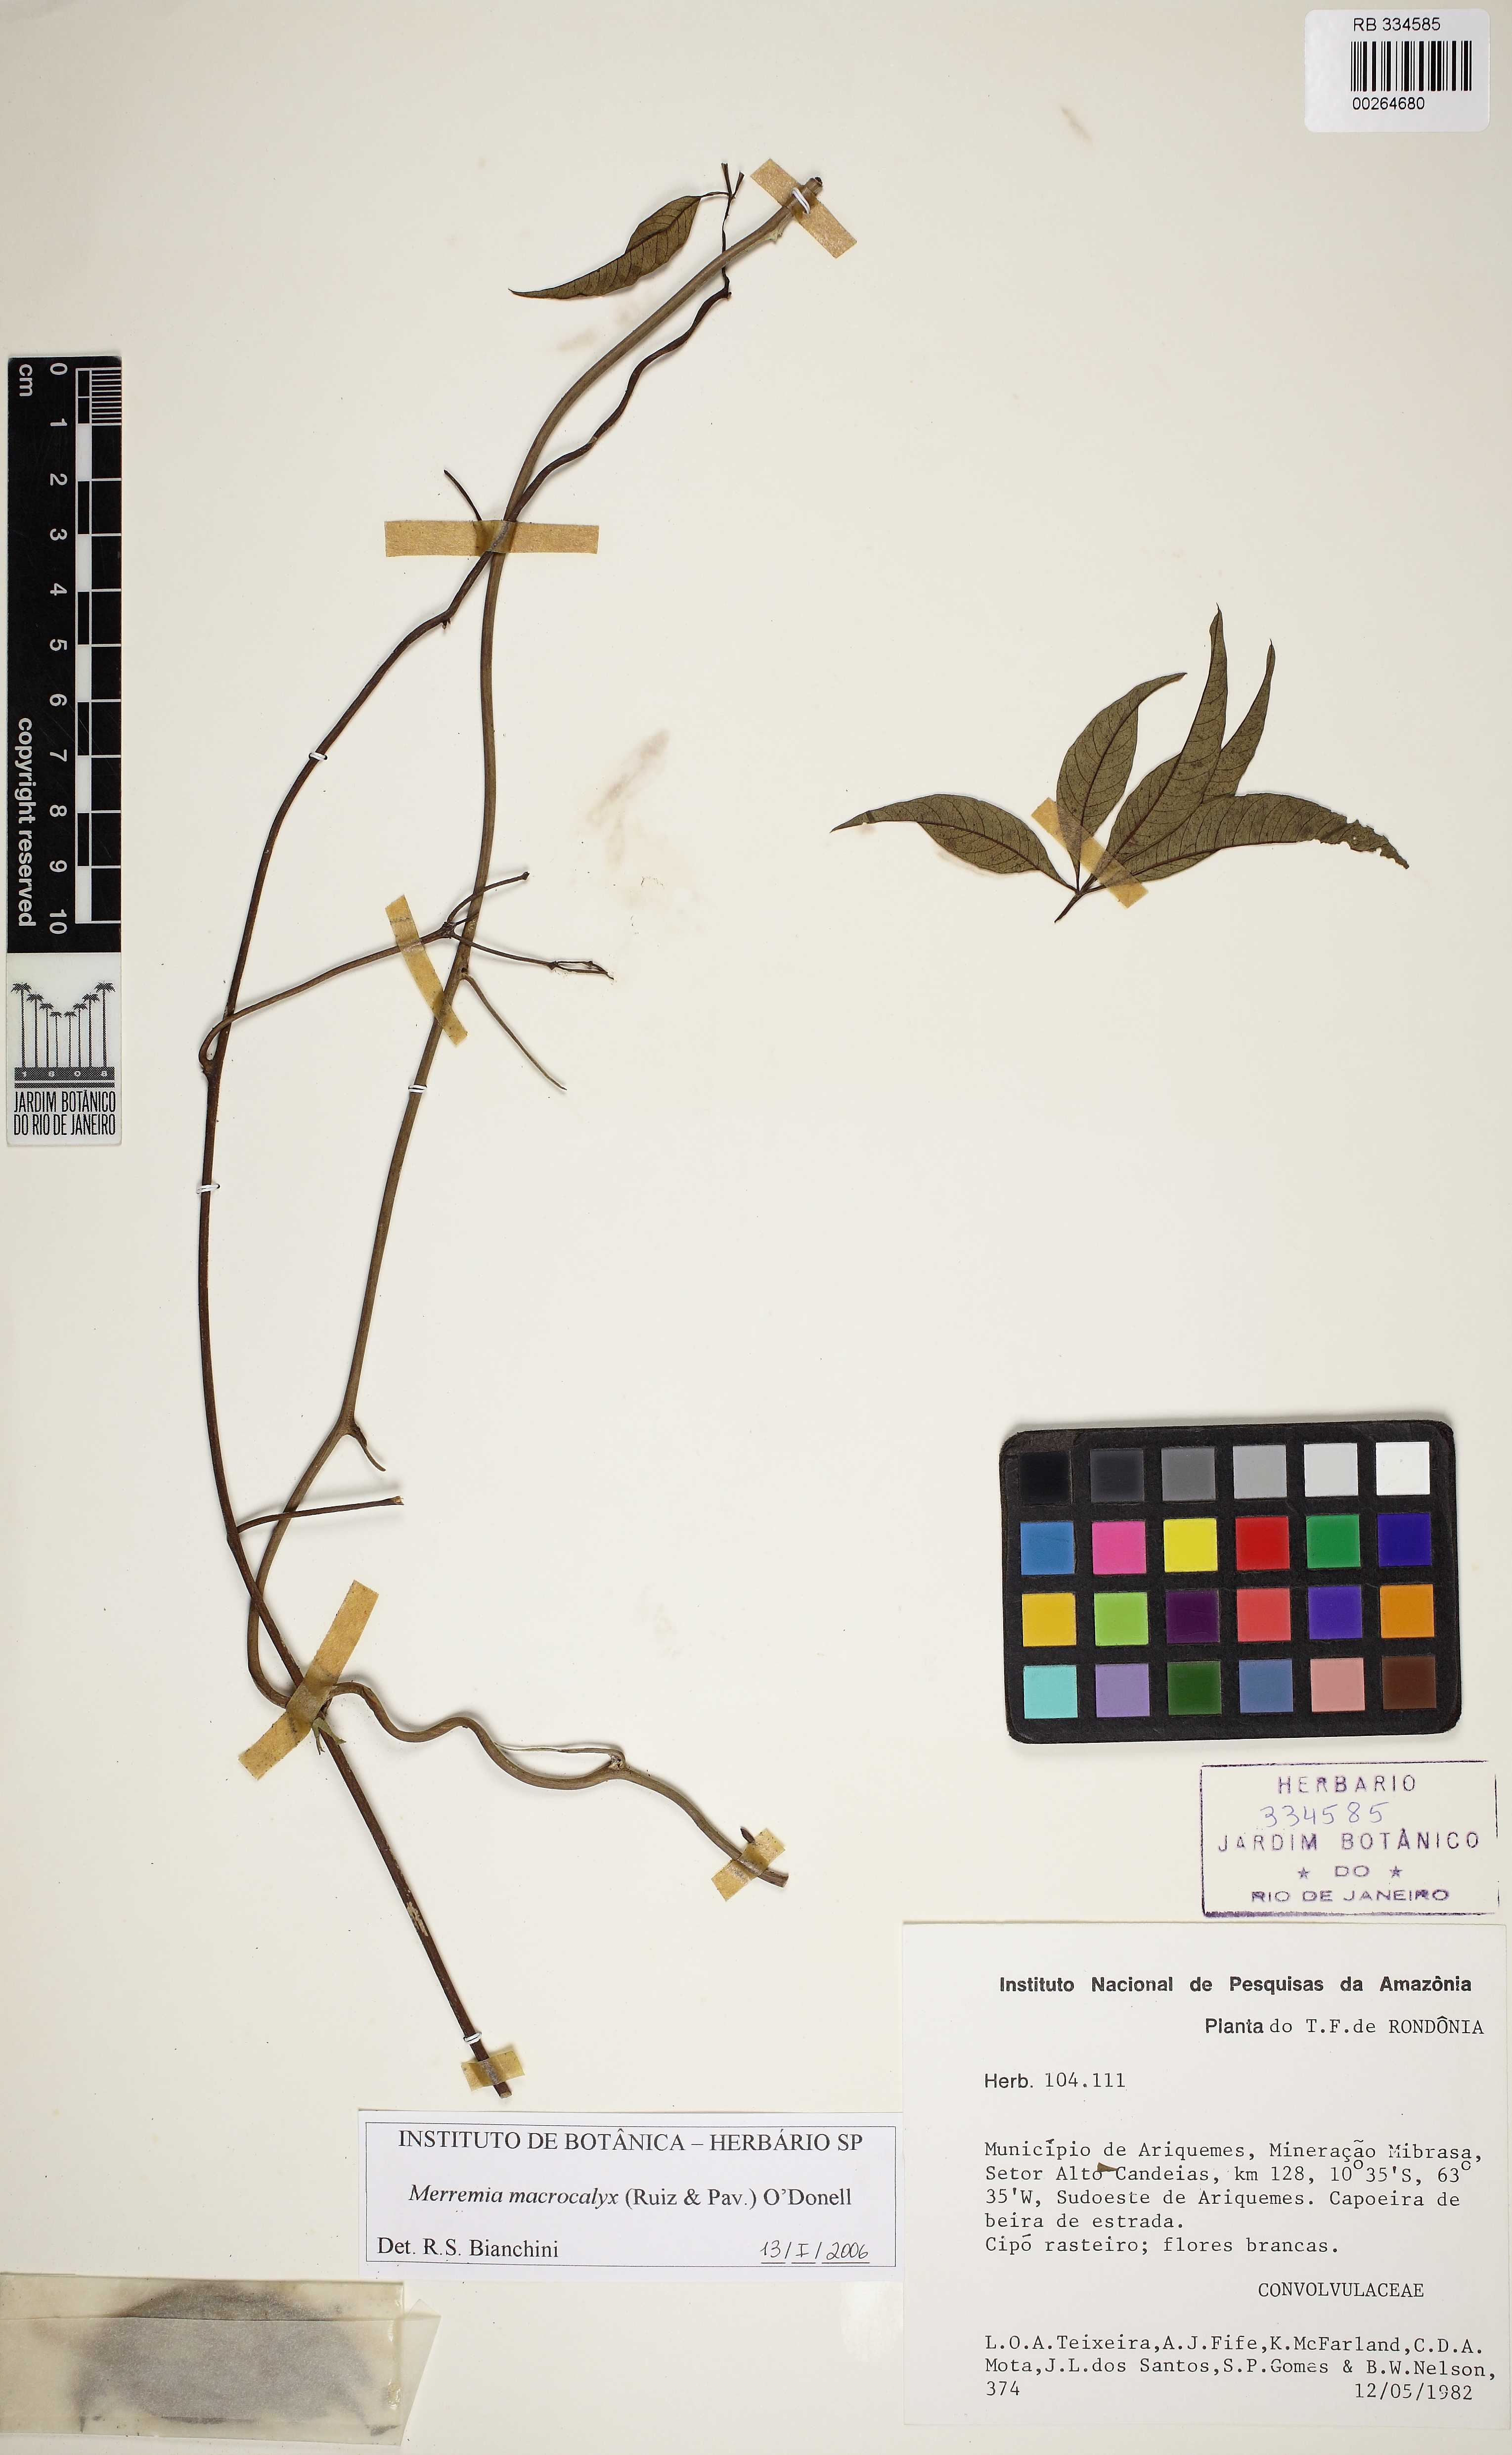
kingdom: Plantae
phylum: Tracheophyta
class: Magnoliopsida
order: Solanales
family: Convolvulaceae
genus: Distimake
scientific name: Distimake macrocalyx
